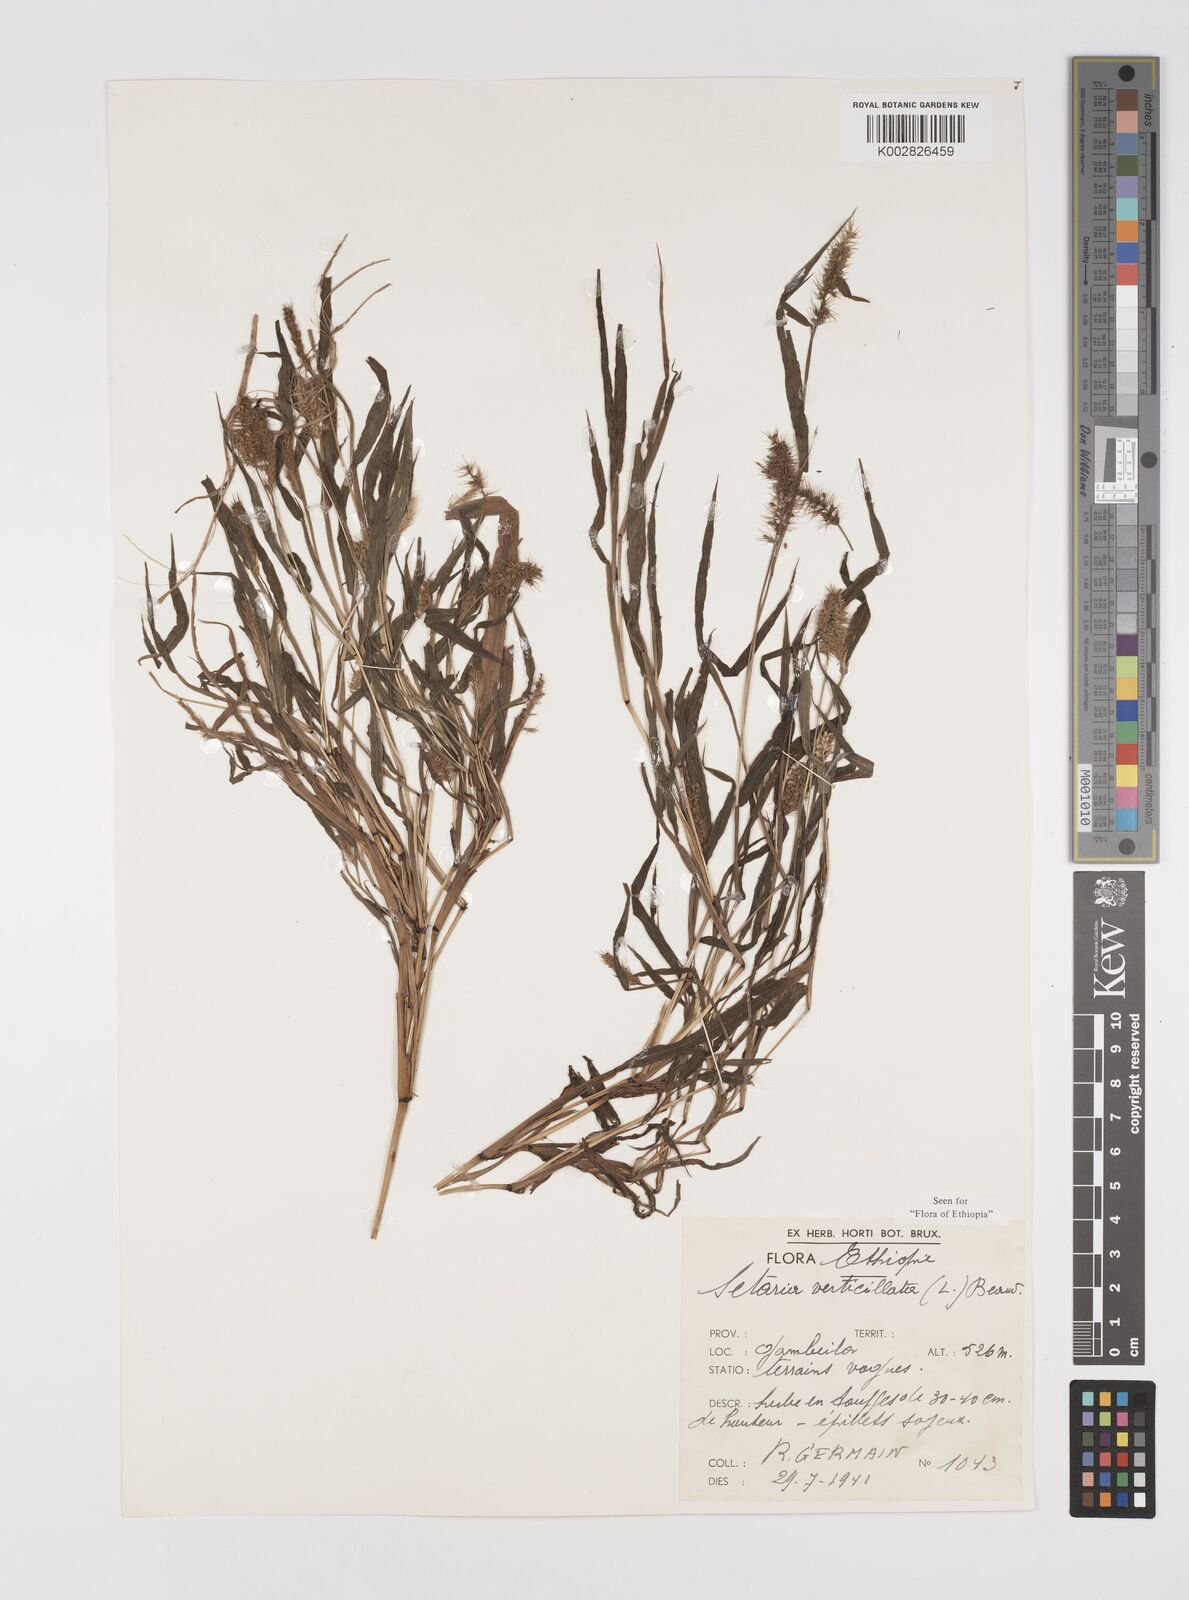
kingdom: Plantae
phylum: Tracheophyta
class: Liliopsida
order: Poales
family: Poaceae
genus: Setaria
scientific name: Setaria verticillata
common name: Hooked bristlegrass
